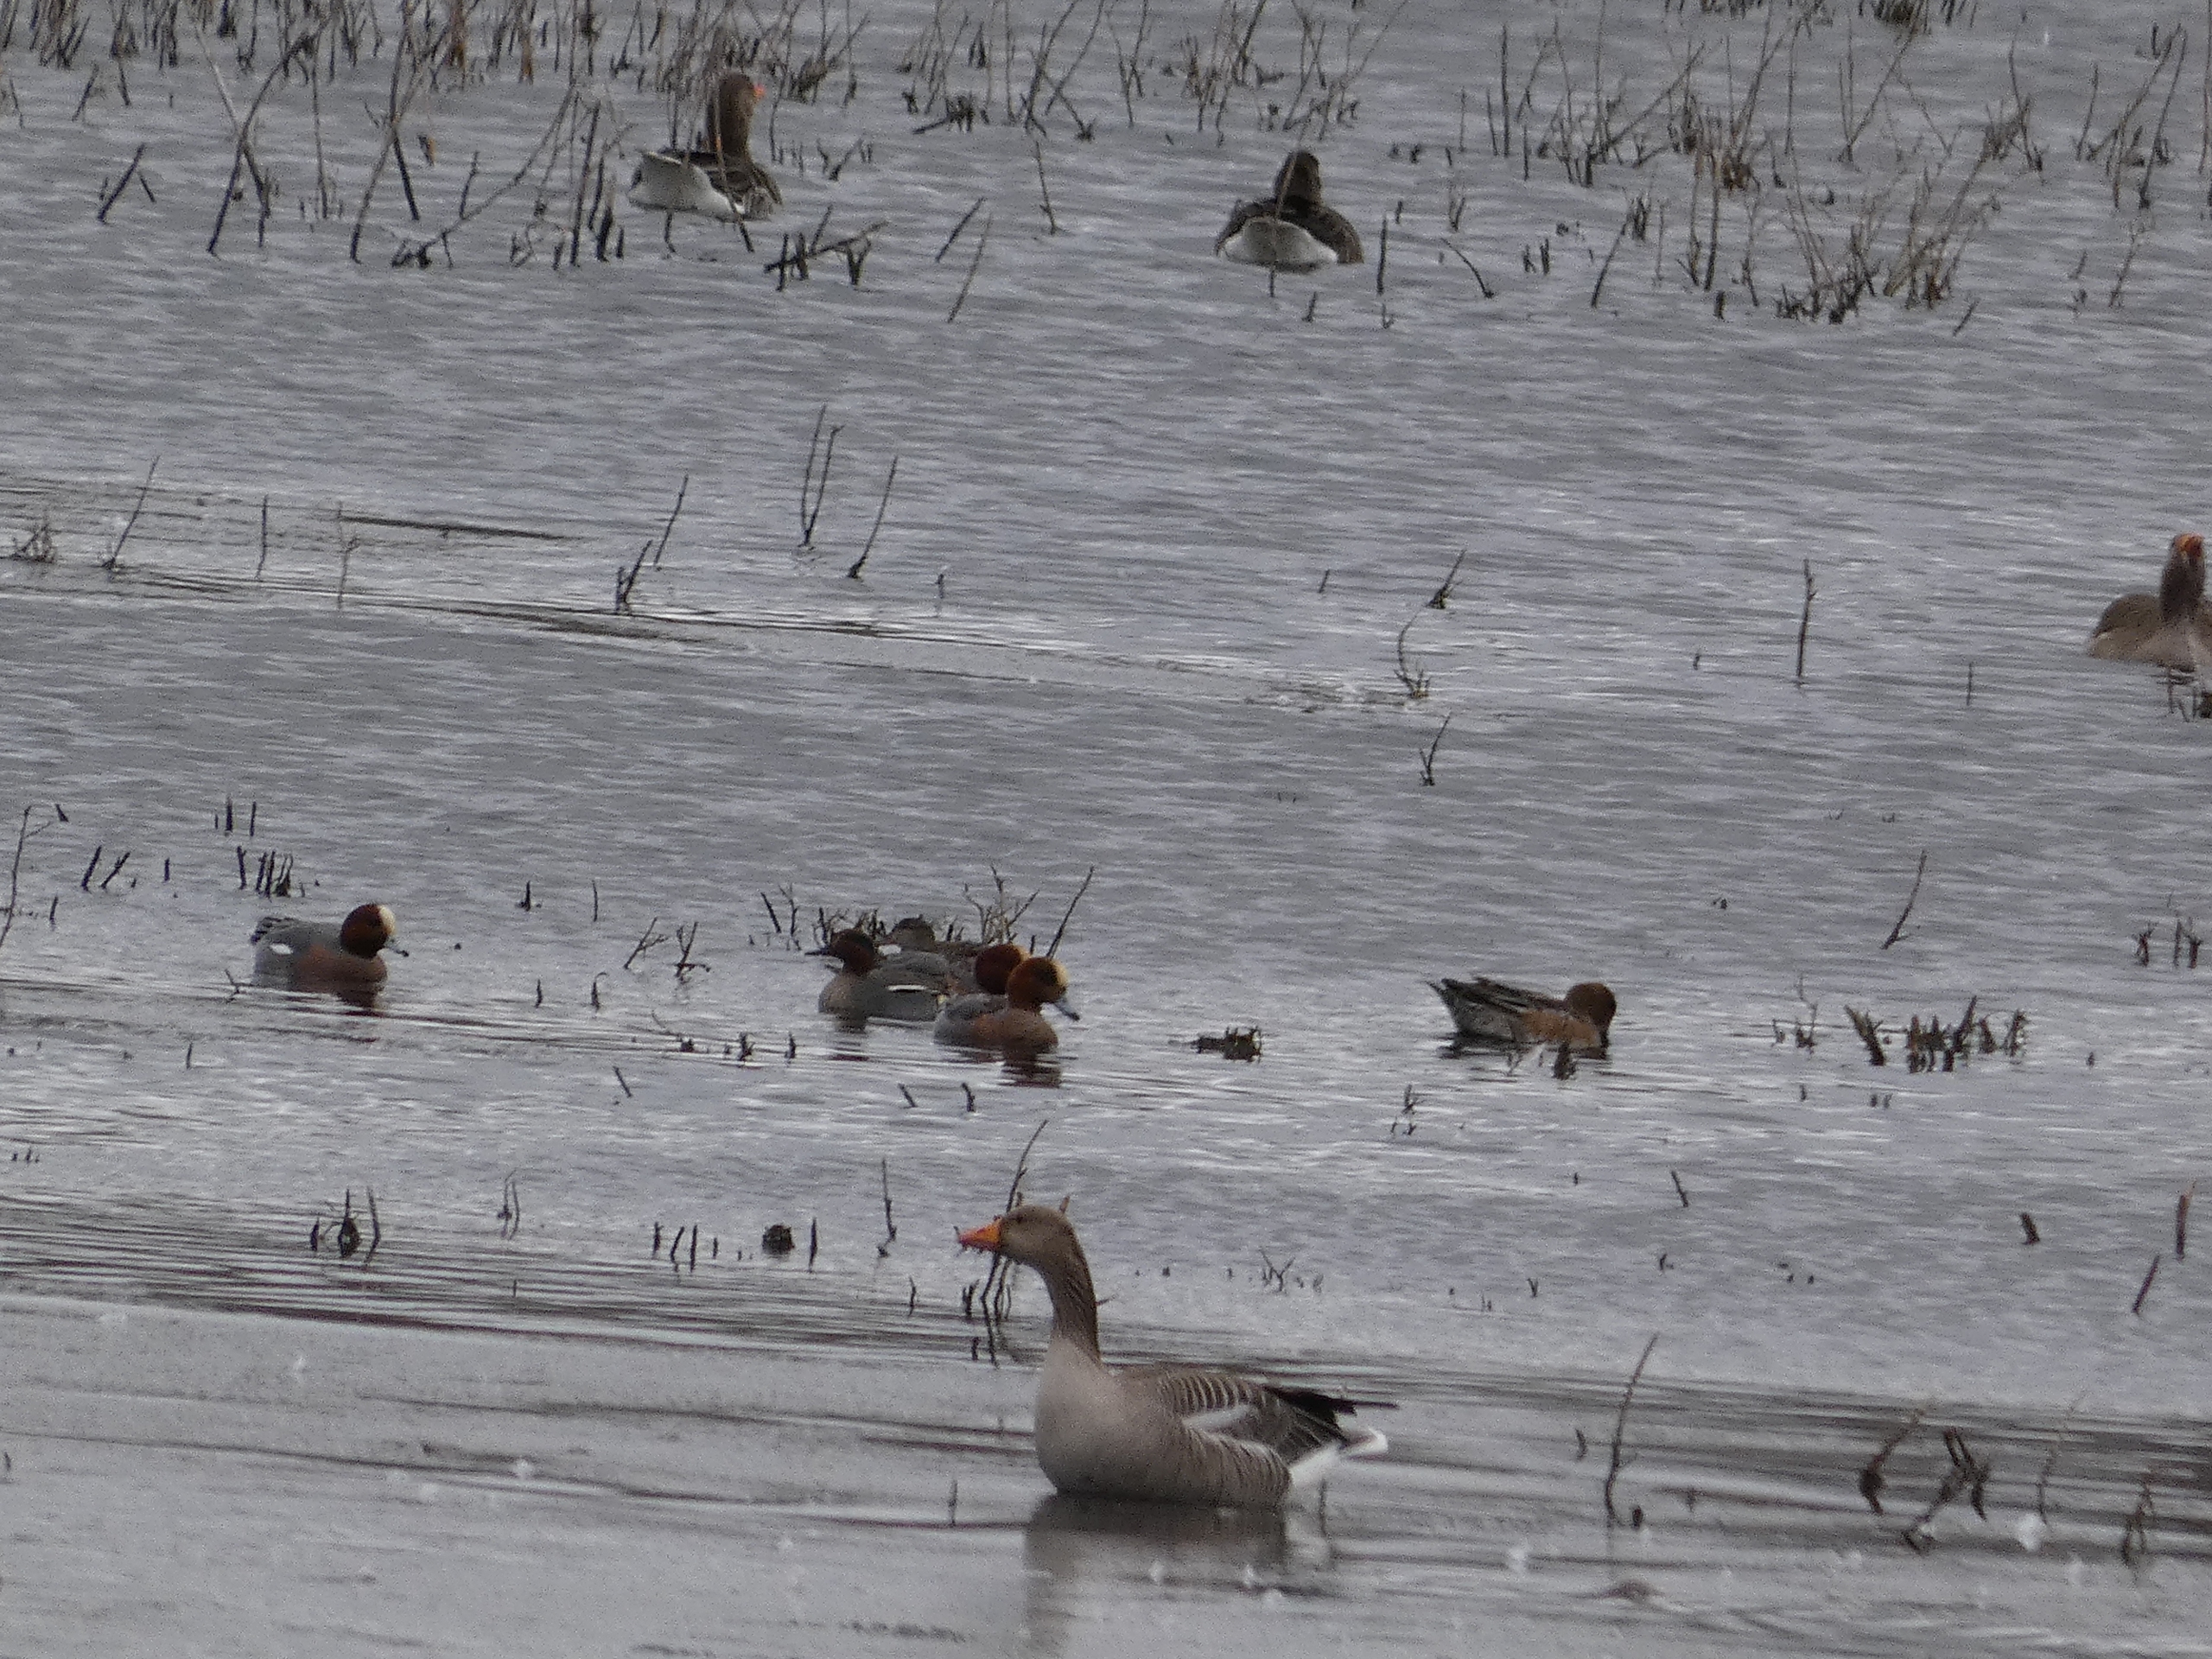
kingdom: Animalia
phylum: Chordata
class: Aves
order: Anseriformes
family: Anatidae
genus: Mareca
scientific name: Mareca penelope
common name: Pibeand
